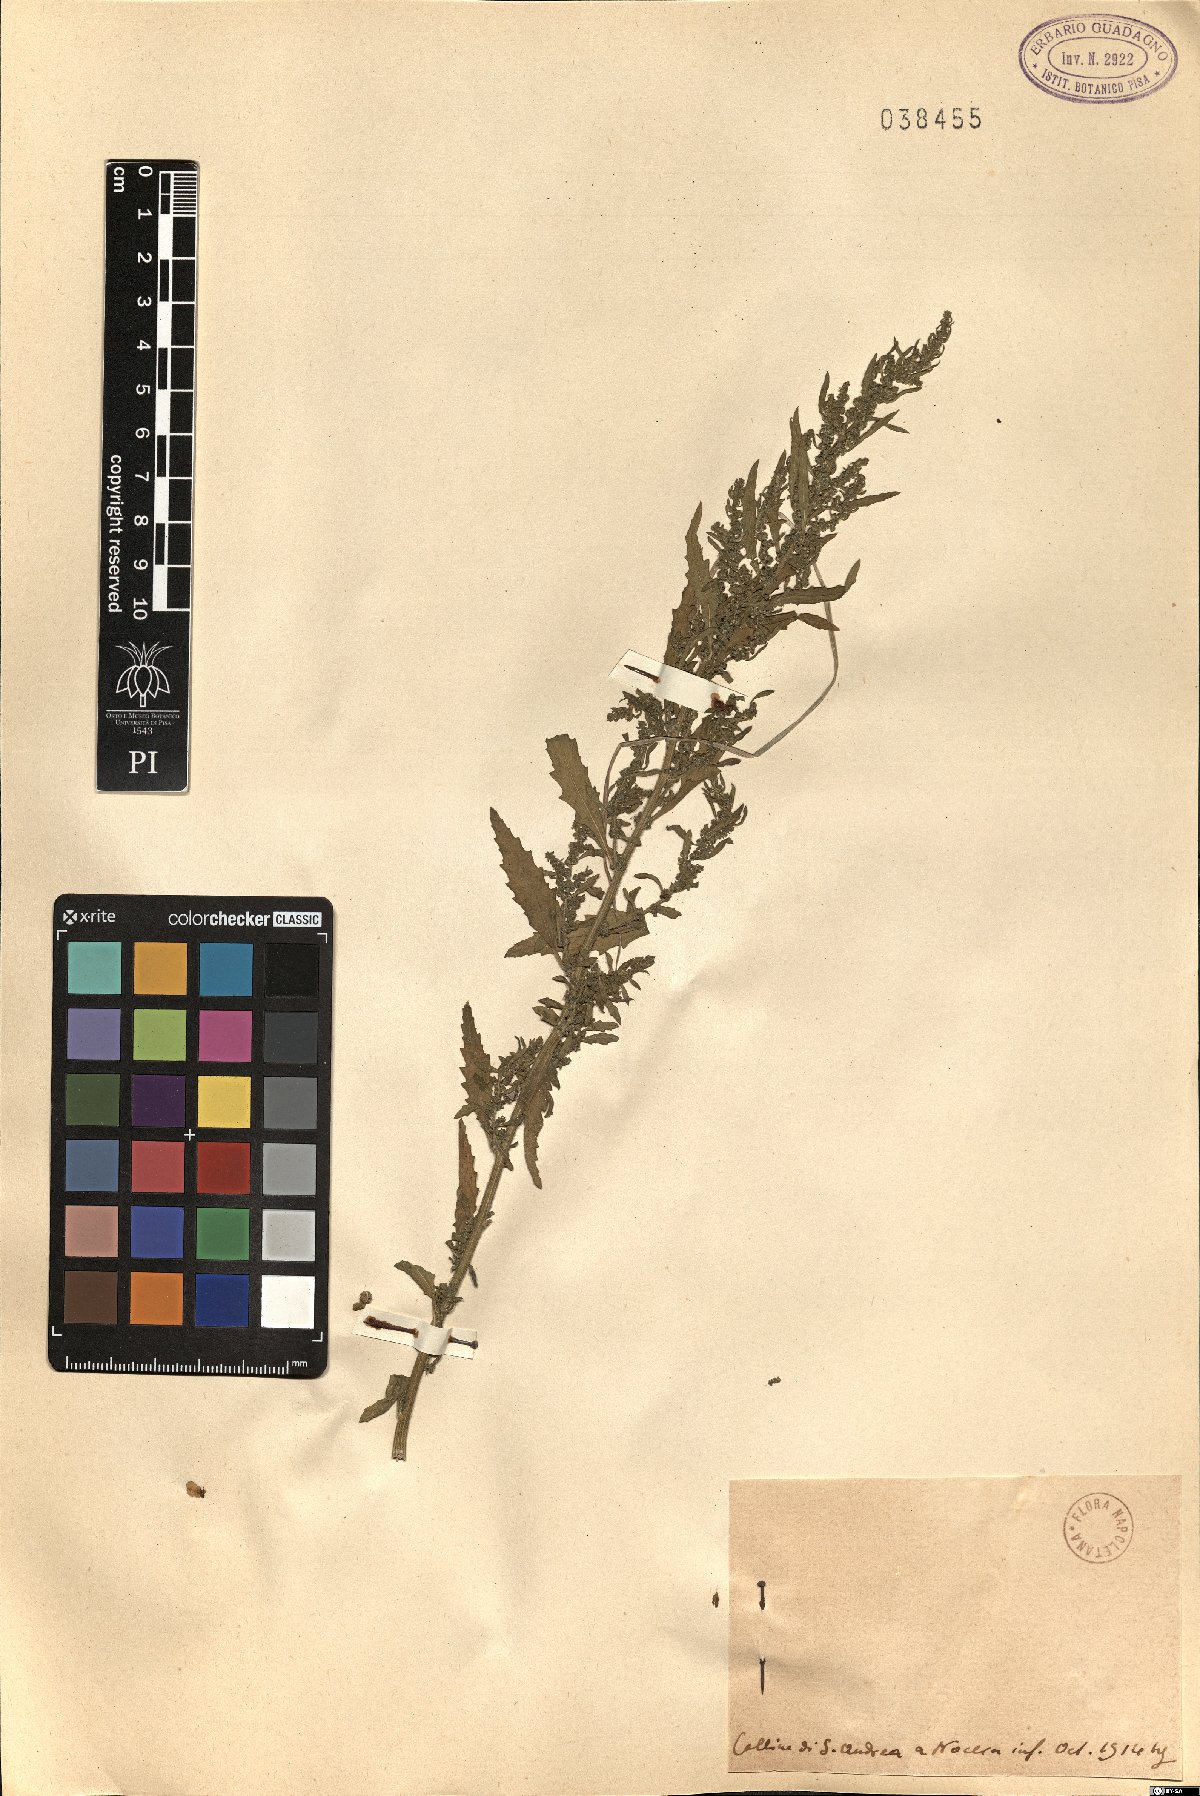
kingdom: Plantae
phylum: Tracheophyta
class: Magnoliopsida
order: Caryophyllales
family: Amaranthaceae
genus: Chenopodium
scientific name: Chenopodium
